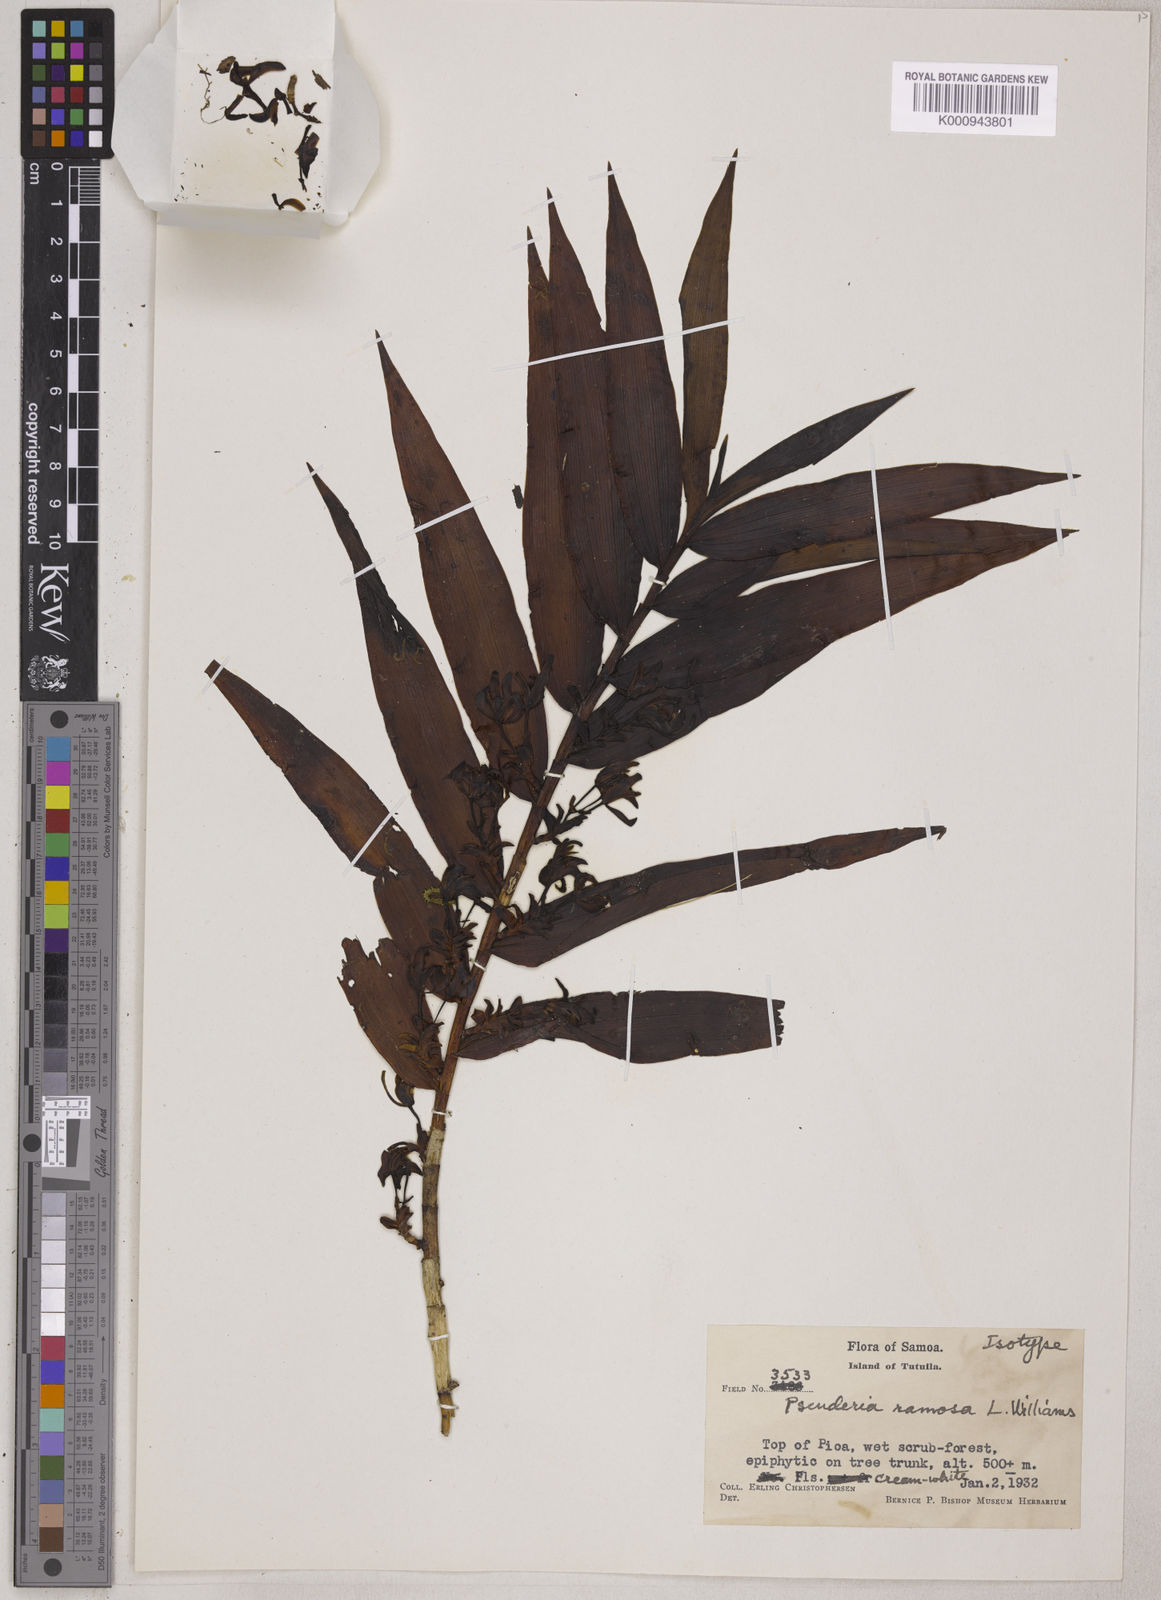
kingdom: Plantae
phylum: Tracheophyta
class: Liliopsida
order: Asparagales
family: Orchidaceae
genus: Pseuderia
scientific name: Pseuderia ramosa
